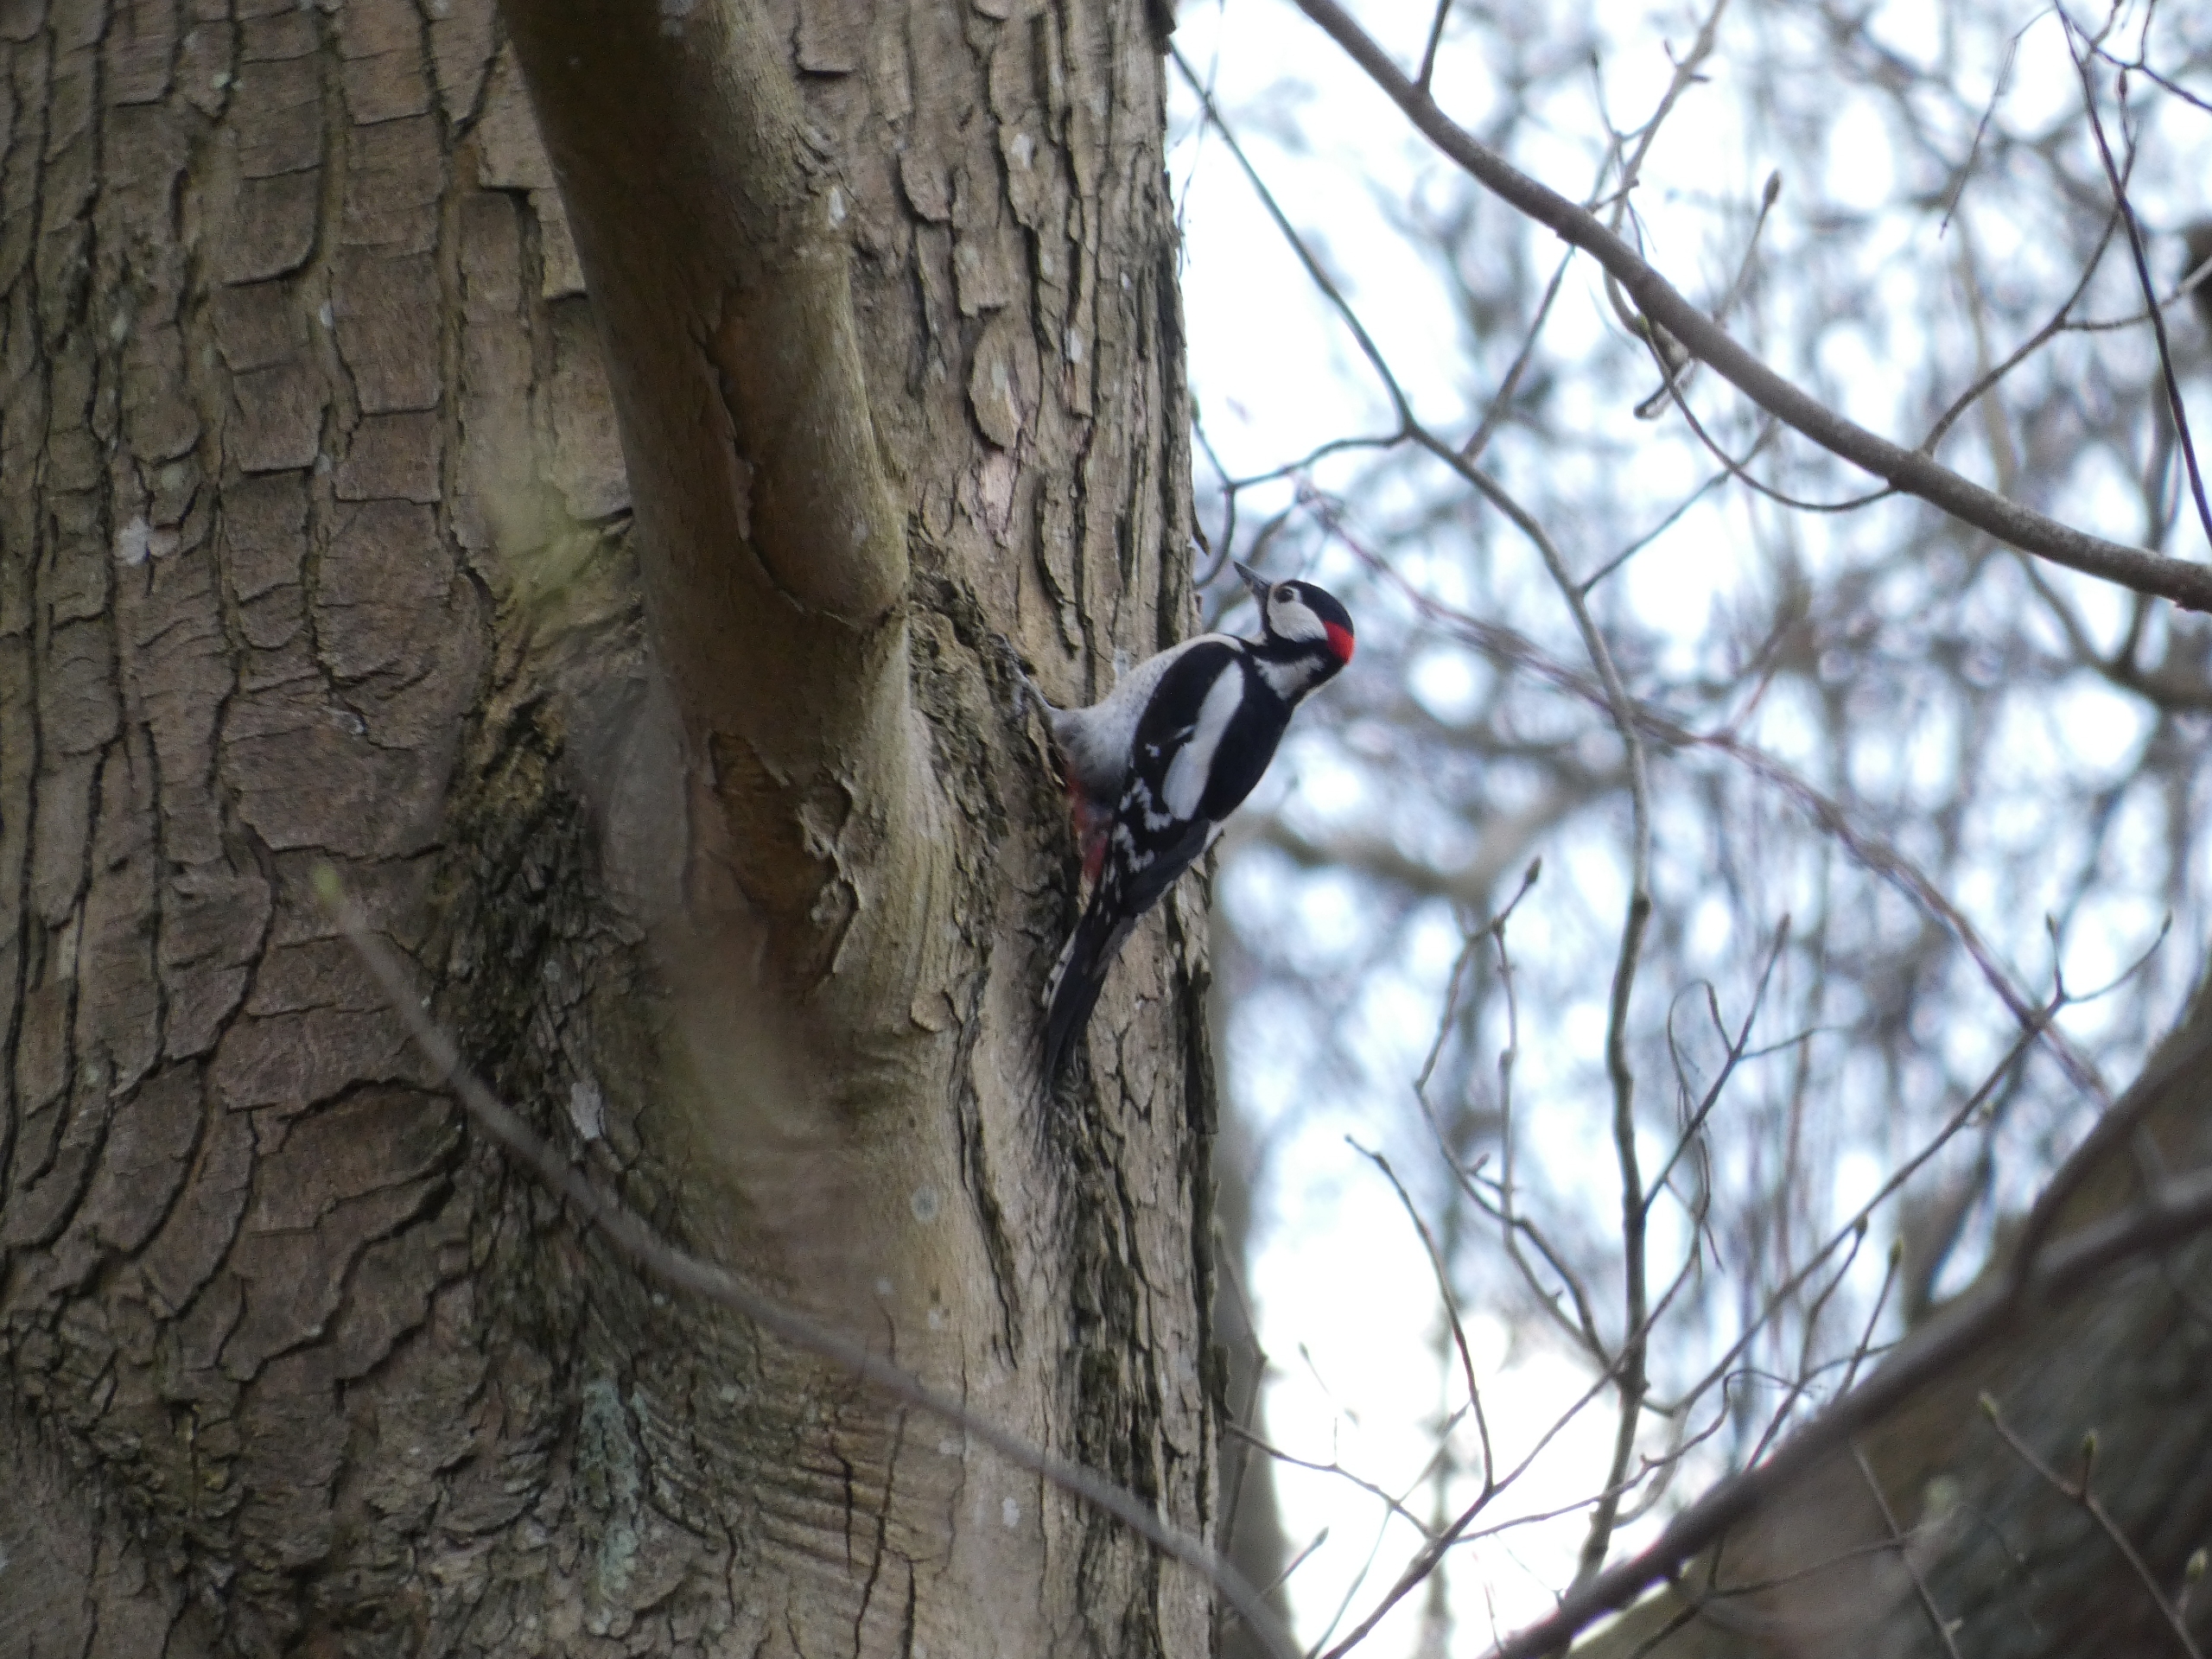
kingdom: Animalia
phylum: Chordata
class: Aves
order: Piciformes
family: Picidae
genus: Dendrocopos
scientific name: Dendrocopos major
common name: Stor flagspætte
